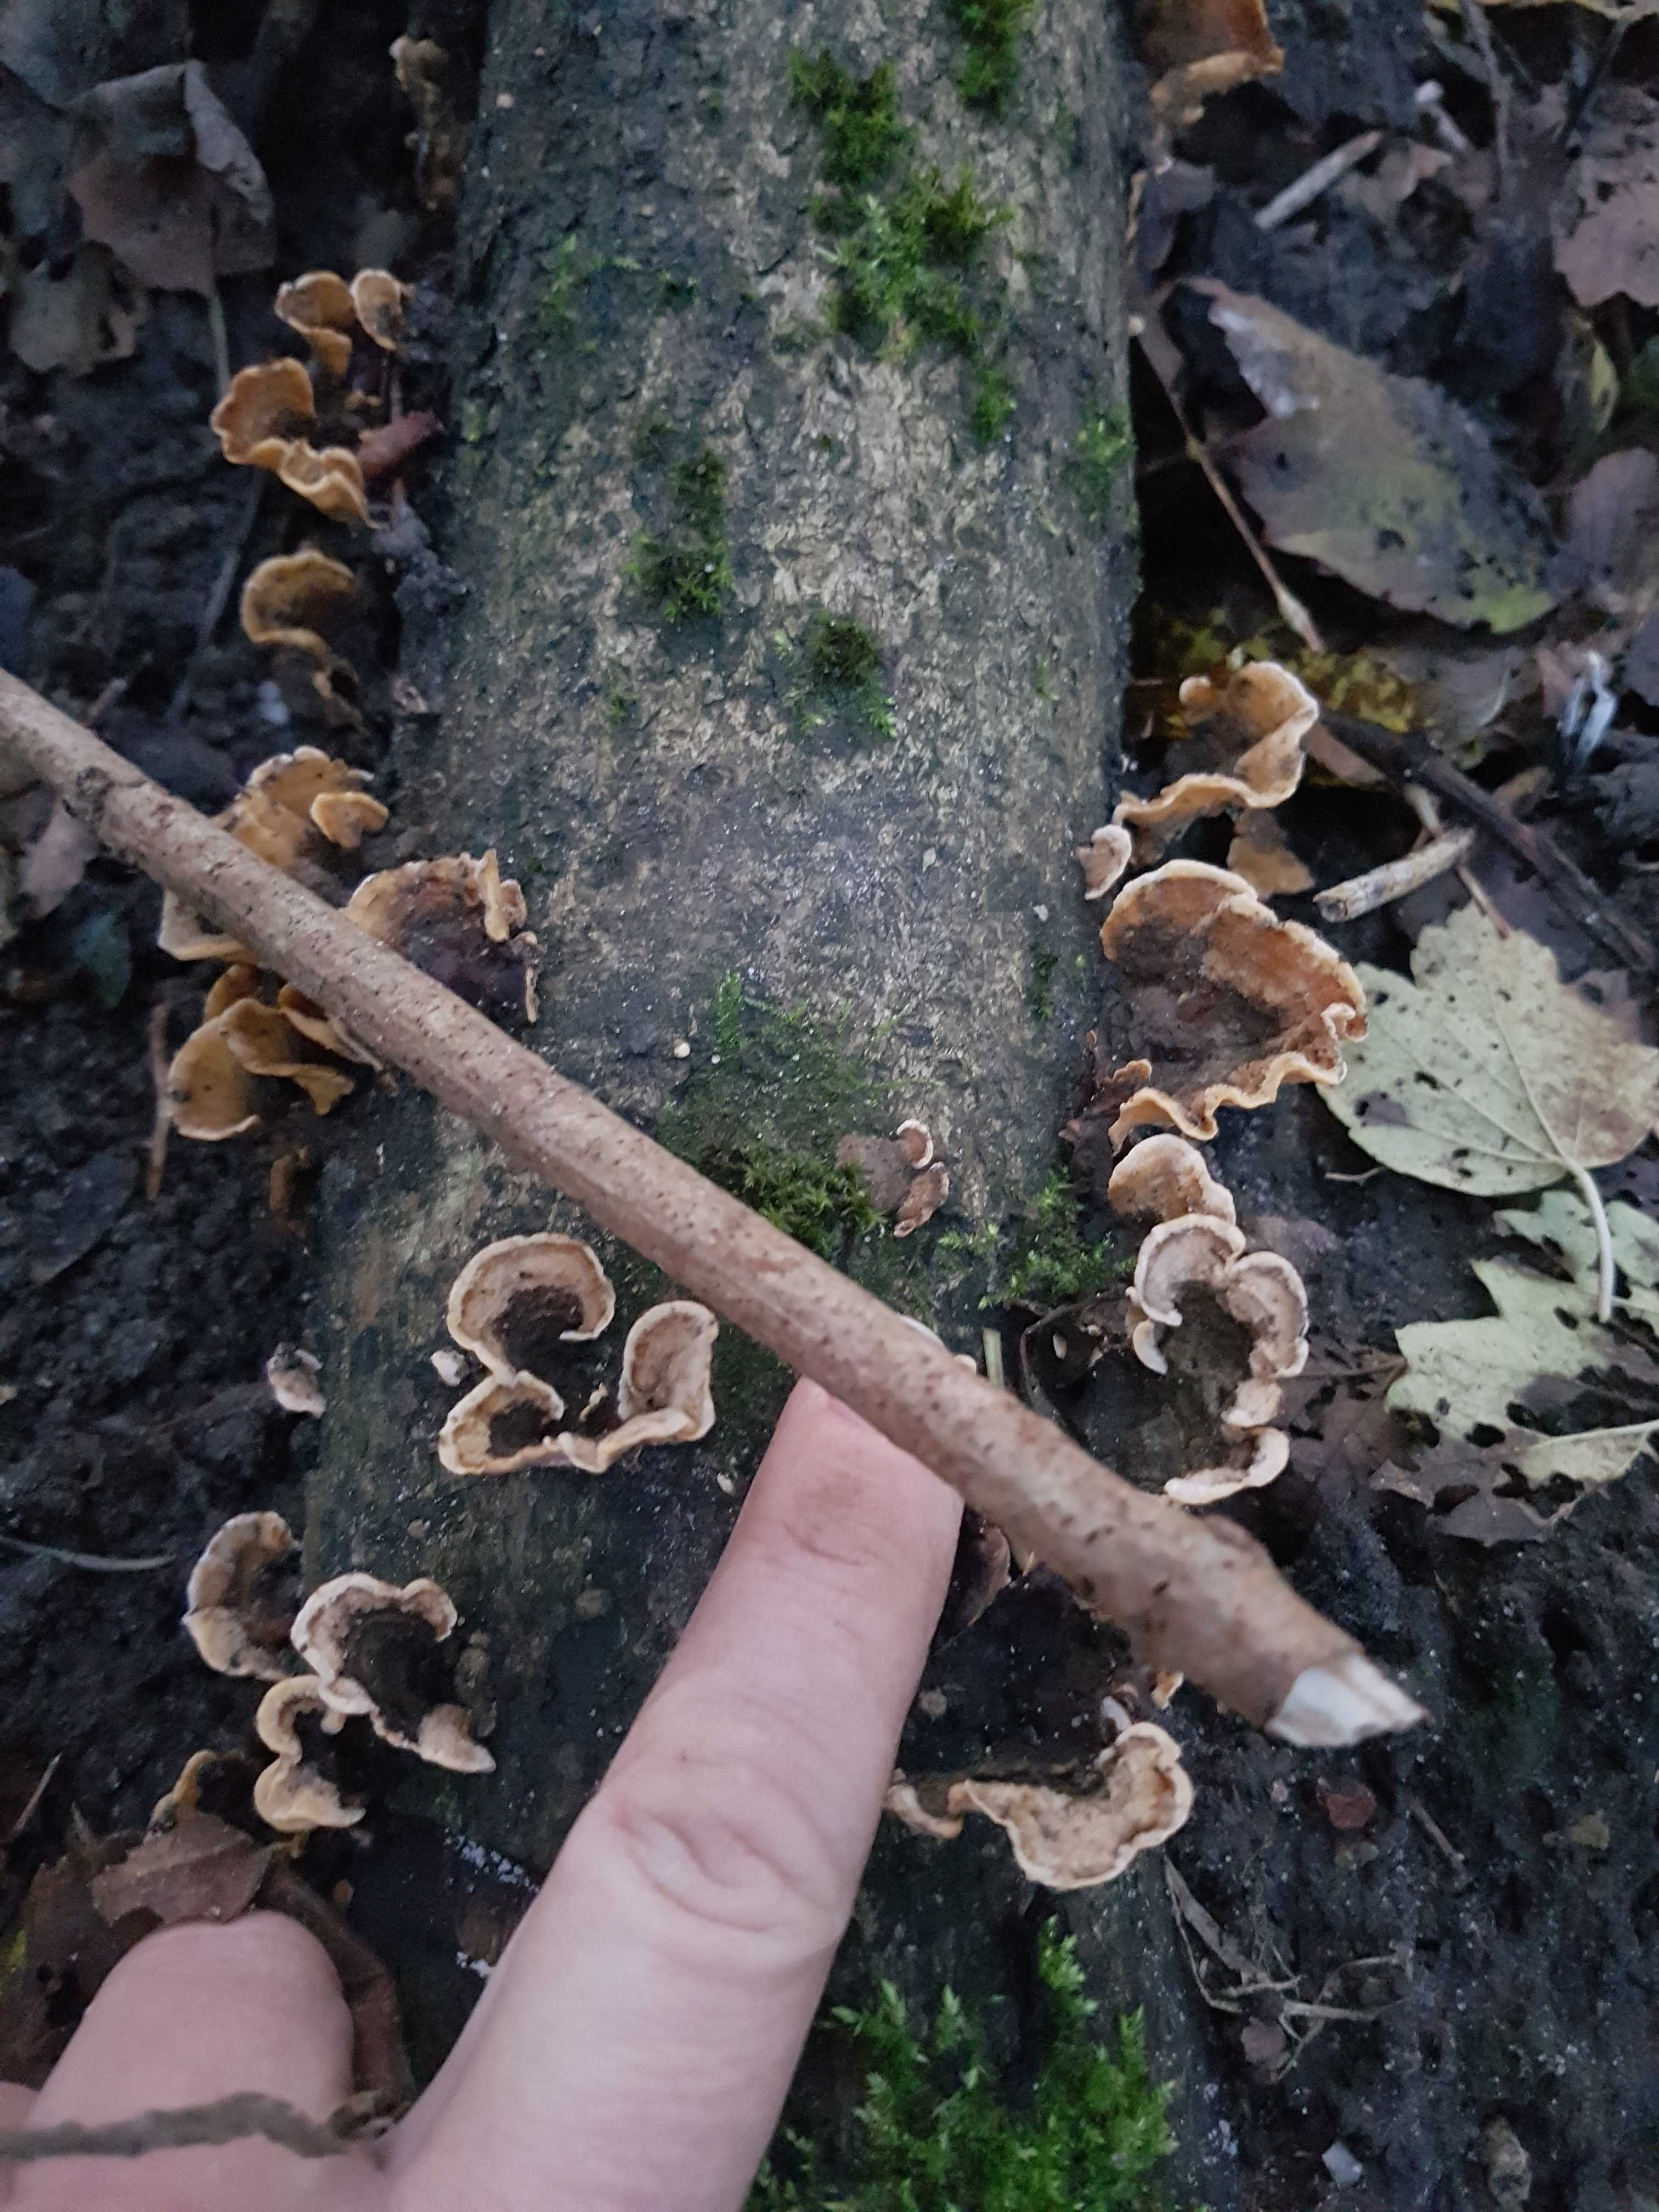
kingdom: Fungi
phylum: Basidiomycota
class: Agaricomycetes
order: Russulales
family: Stereaceae
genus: Stereum
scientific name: Stereum hirsutum
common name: håret lædersvamp
